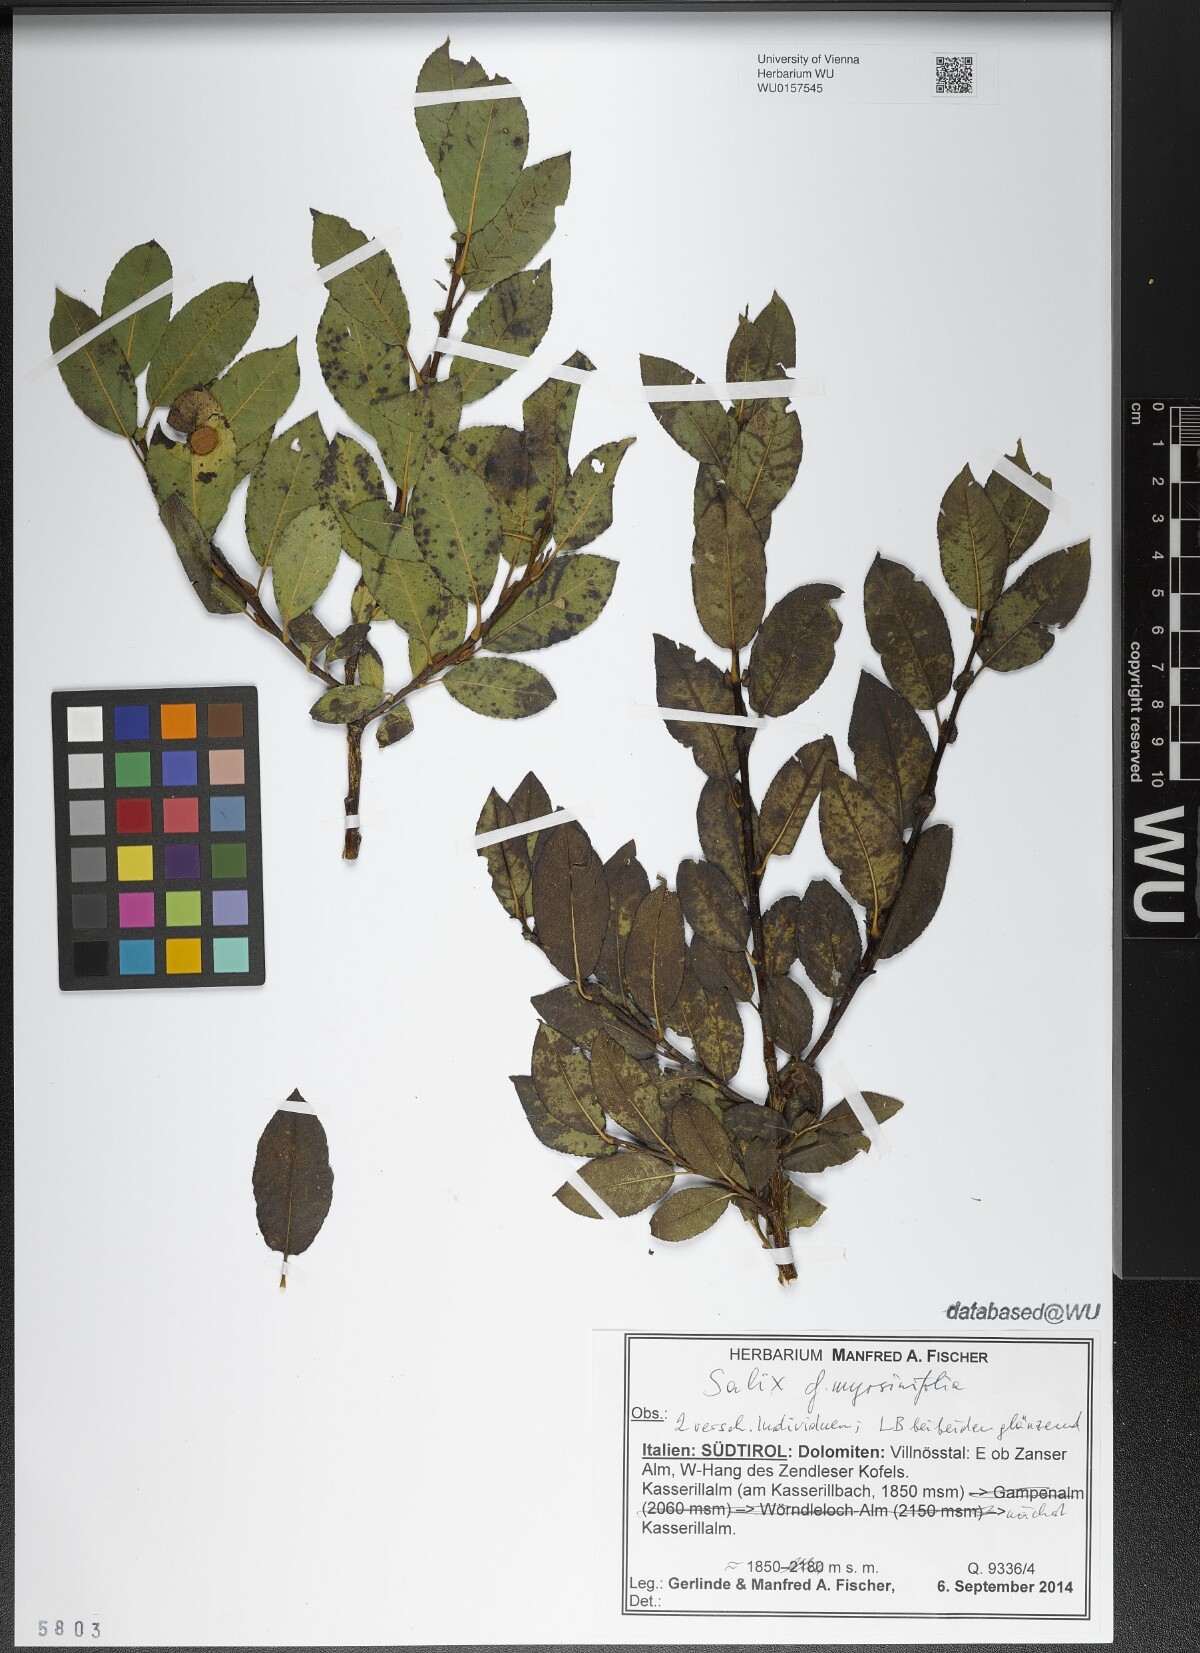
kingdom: Plantae
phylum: Tracheophyta
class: Magnoliopsida
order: Malpighiales
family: Salicaceae
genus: Salix
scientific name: Salix myrsinifolia
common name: Dark-leaved willow
